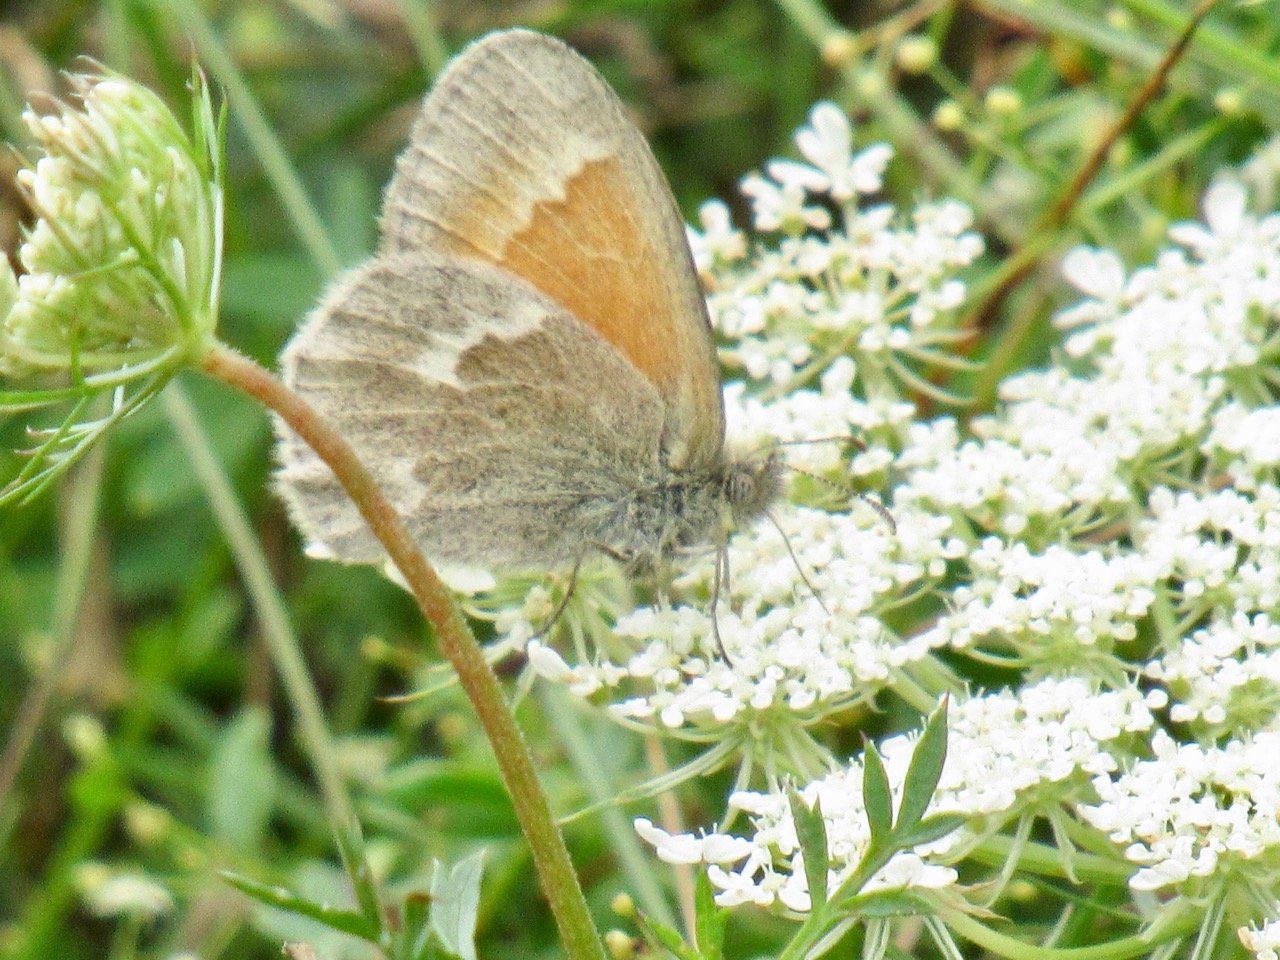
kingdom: Animalia
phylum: Arthropoda
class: Insecta
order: Lepidoptera
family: Nymphalidae
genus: Coenonympha
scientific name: Coenonympha tullia
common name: Large Heath
